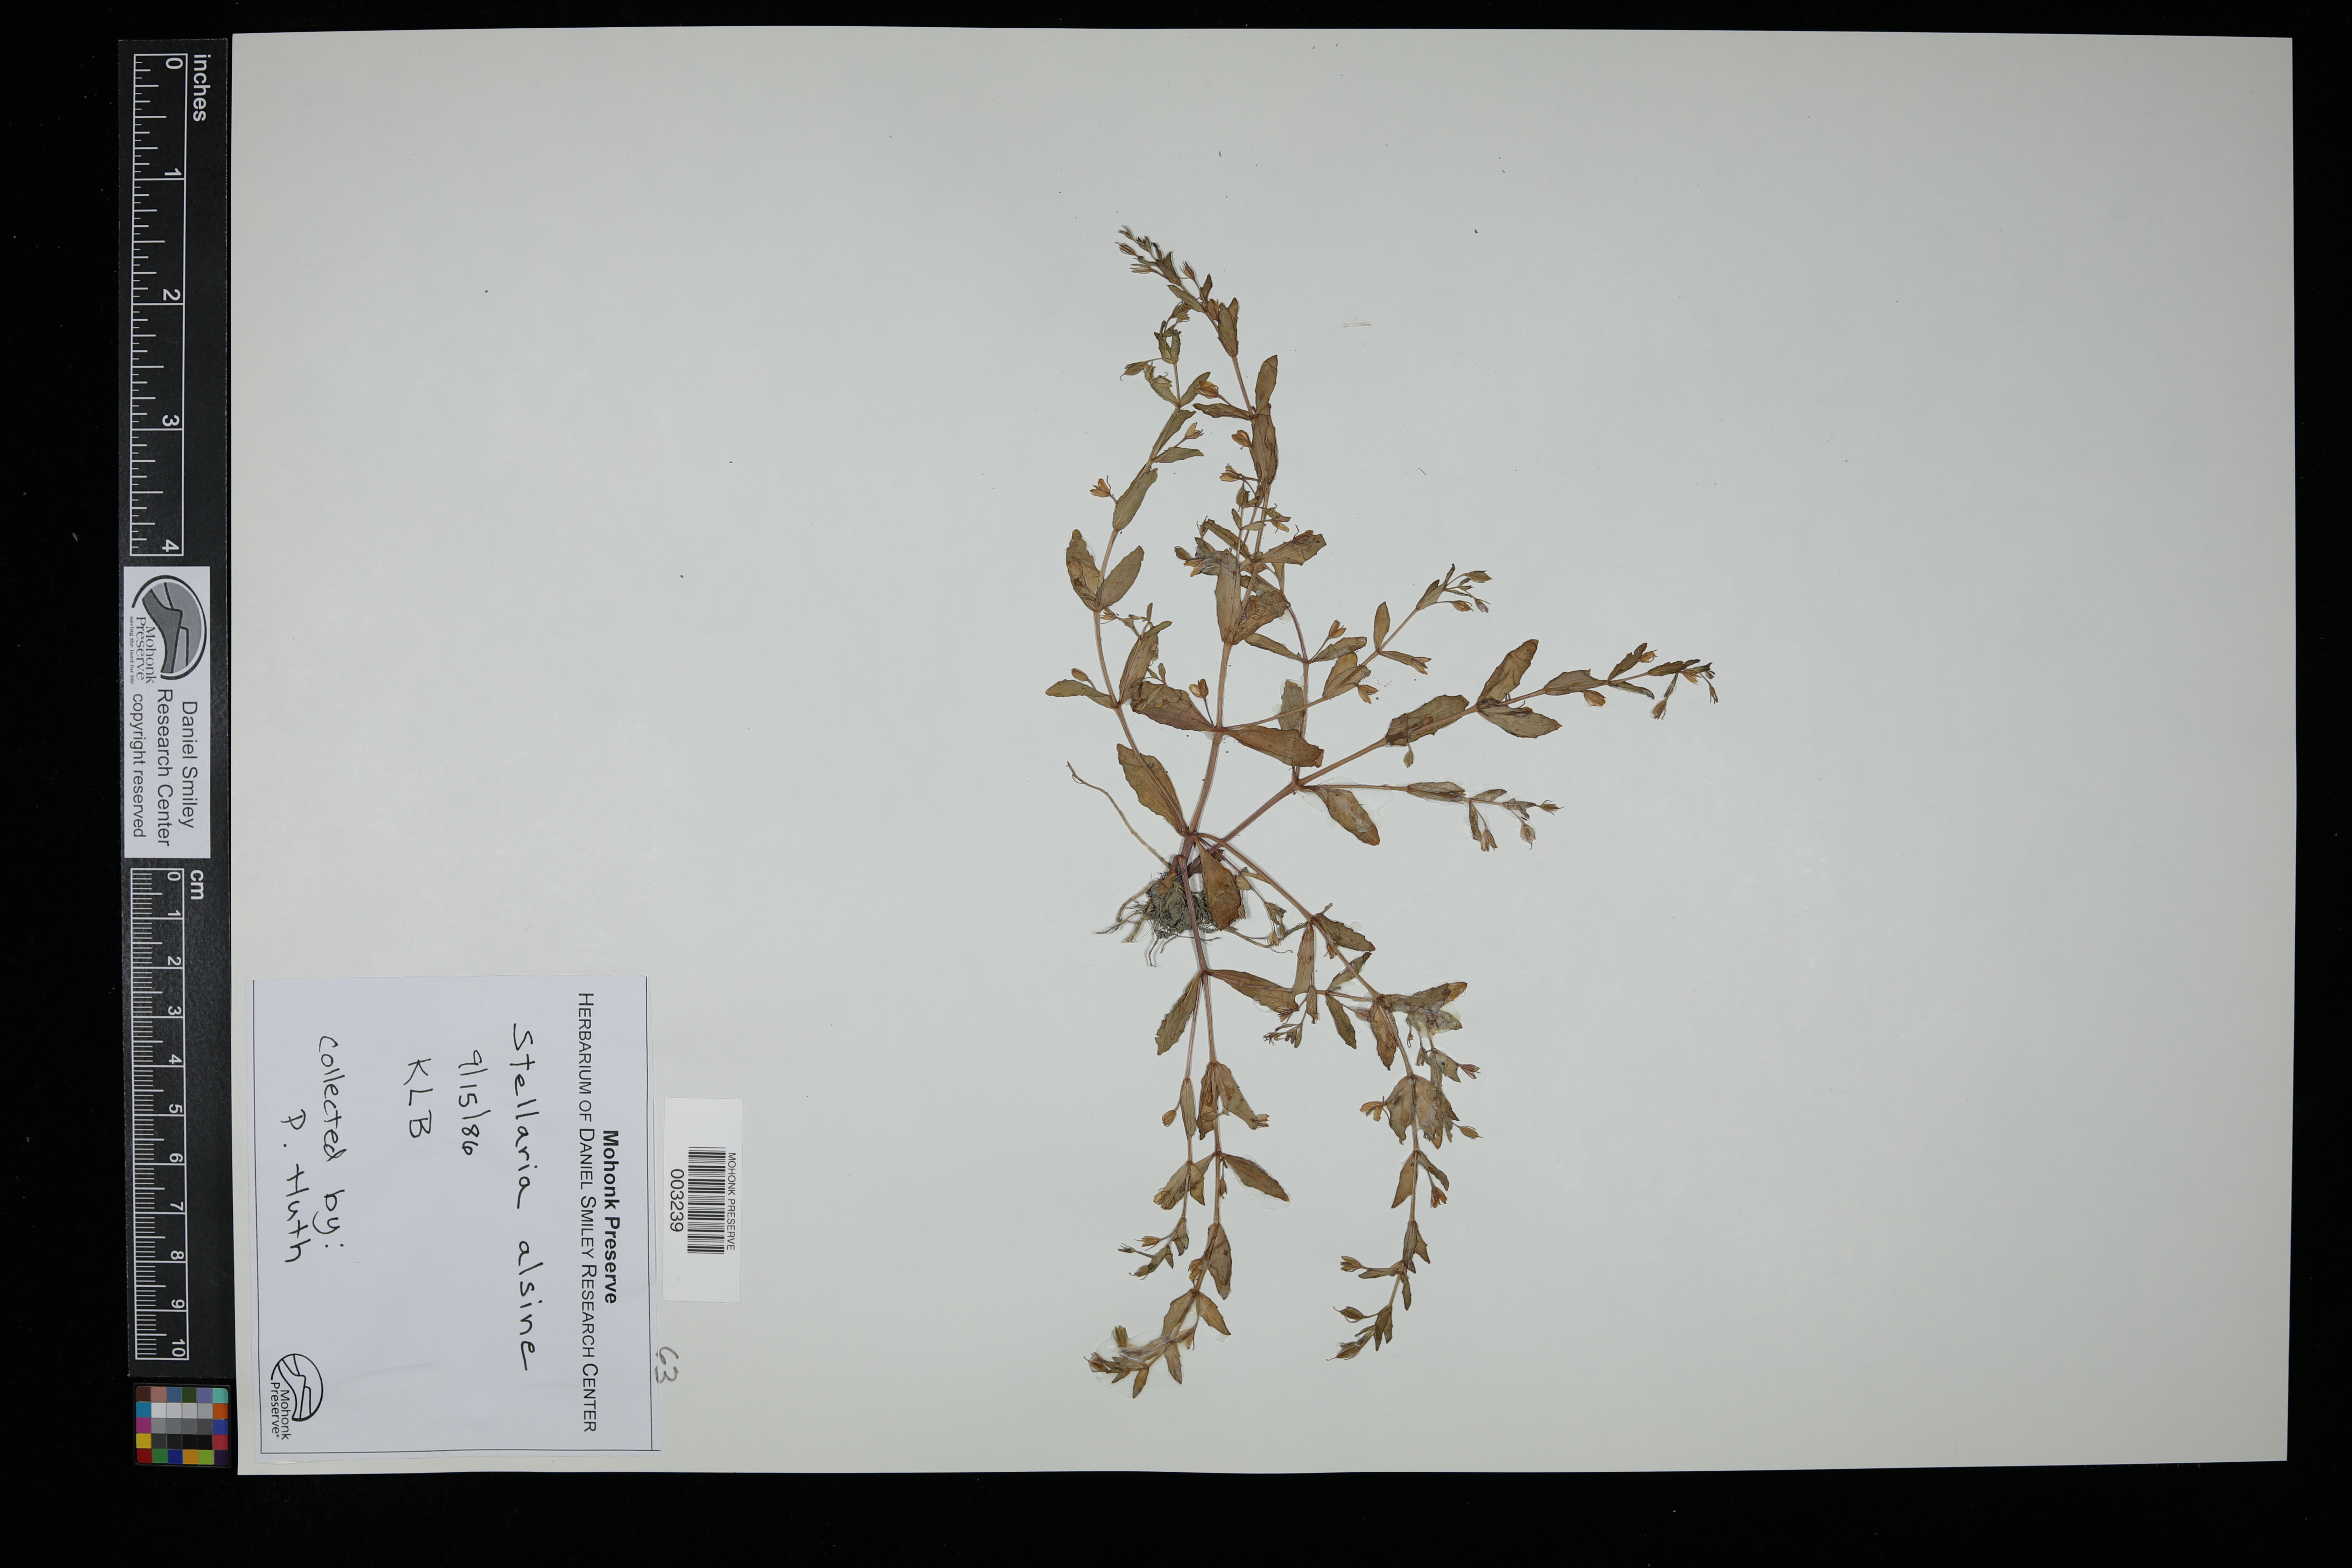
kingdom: Plantae
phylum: Tracheophyta
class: Magnoliopsida
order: Caryophyllales
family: Caryophyllaceae
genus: Stellaria
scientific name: Stellaria alsine
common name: Bog stitchwort
